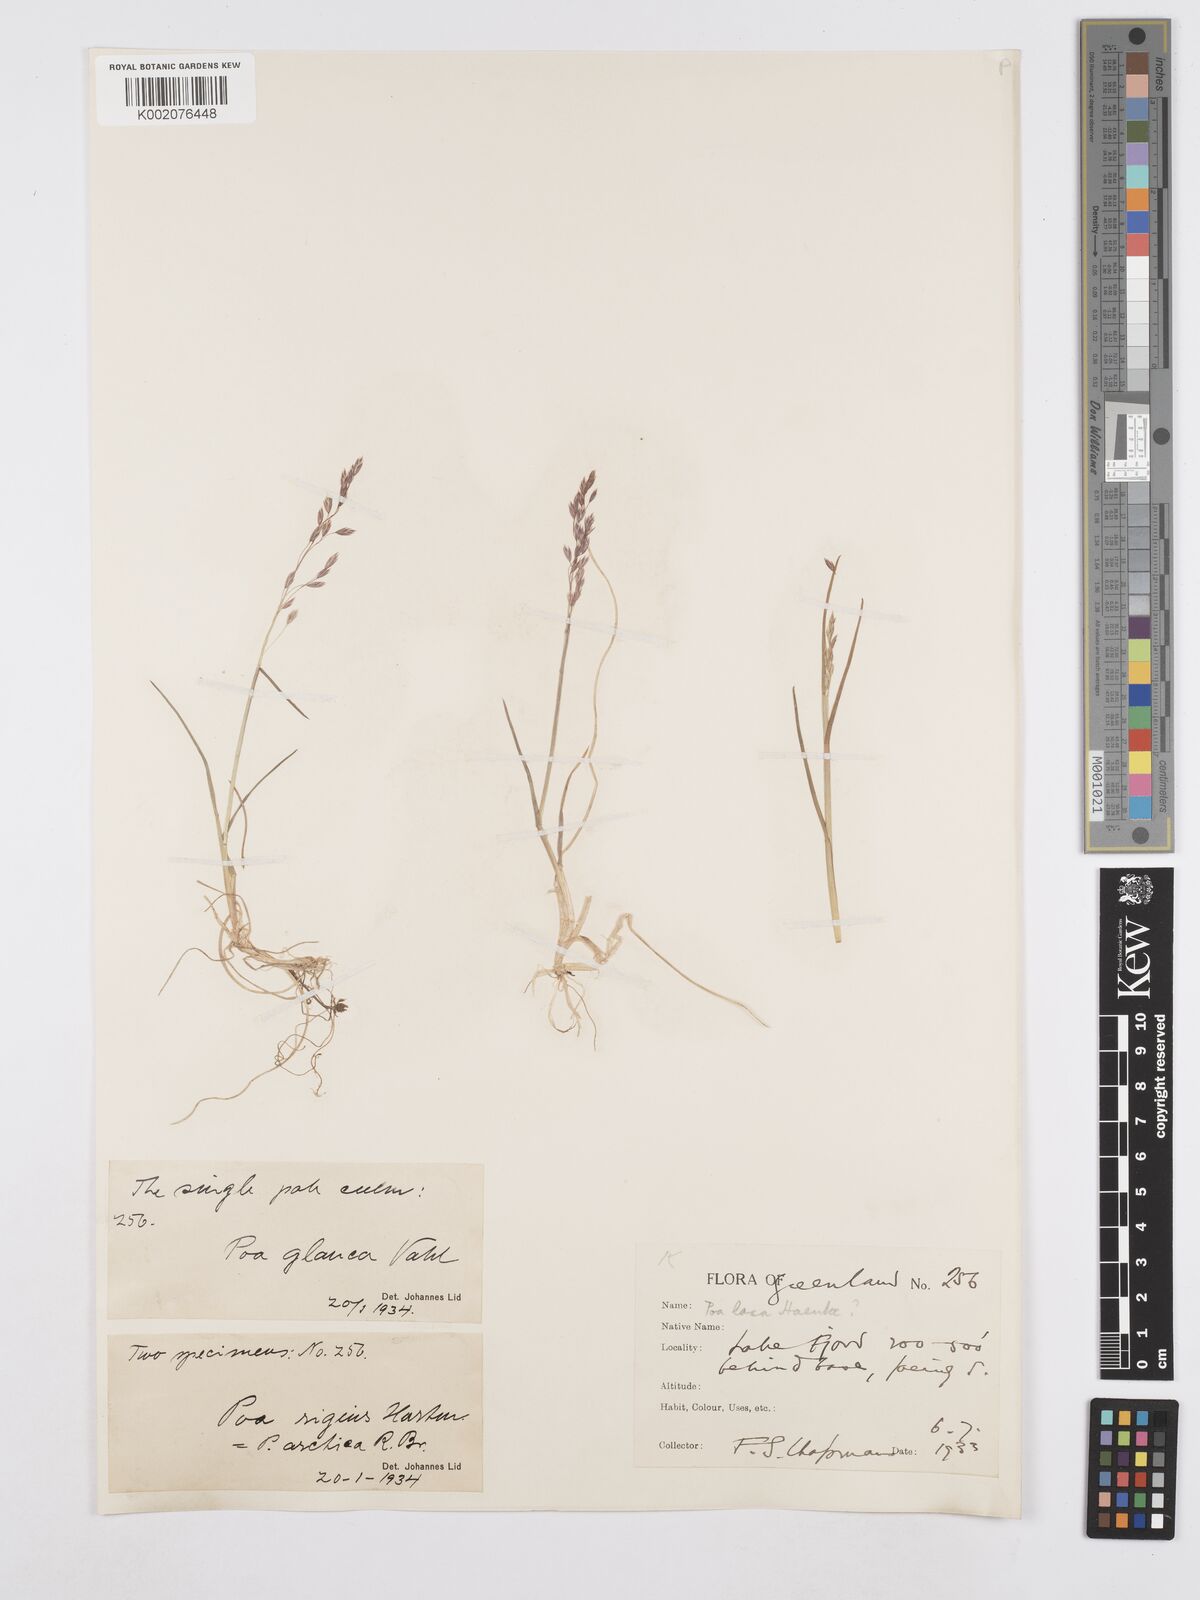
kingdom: Plantae
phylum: Tracheophyta
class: Liliopsida
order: Poales
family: Poaceae
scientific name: Poaceae
